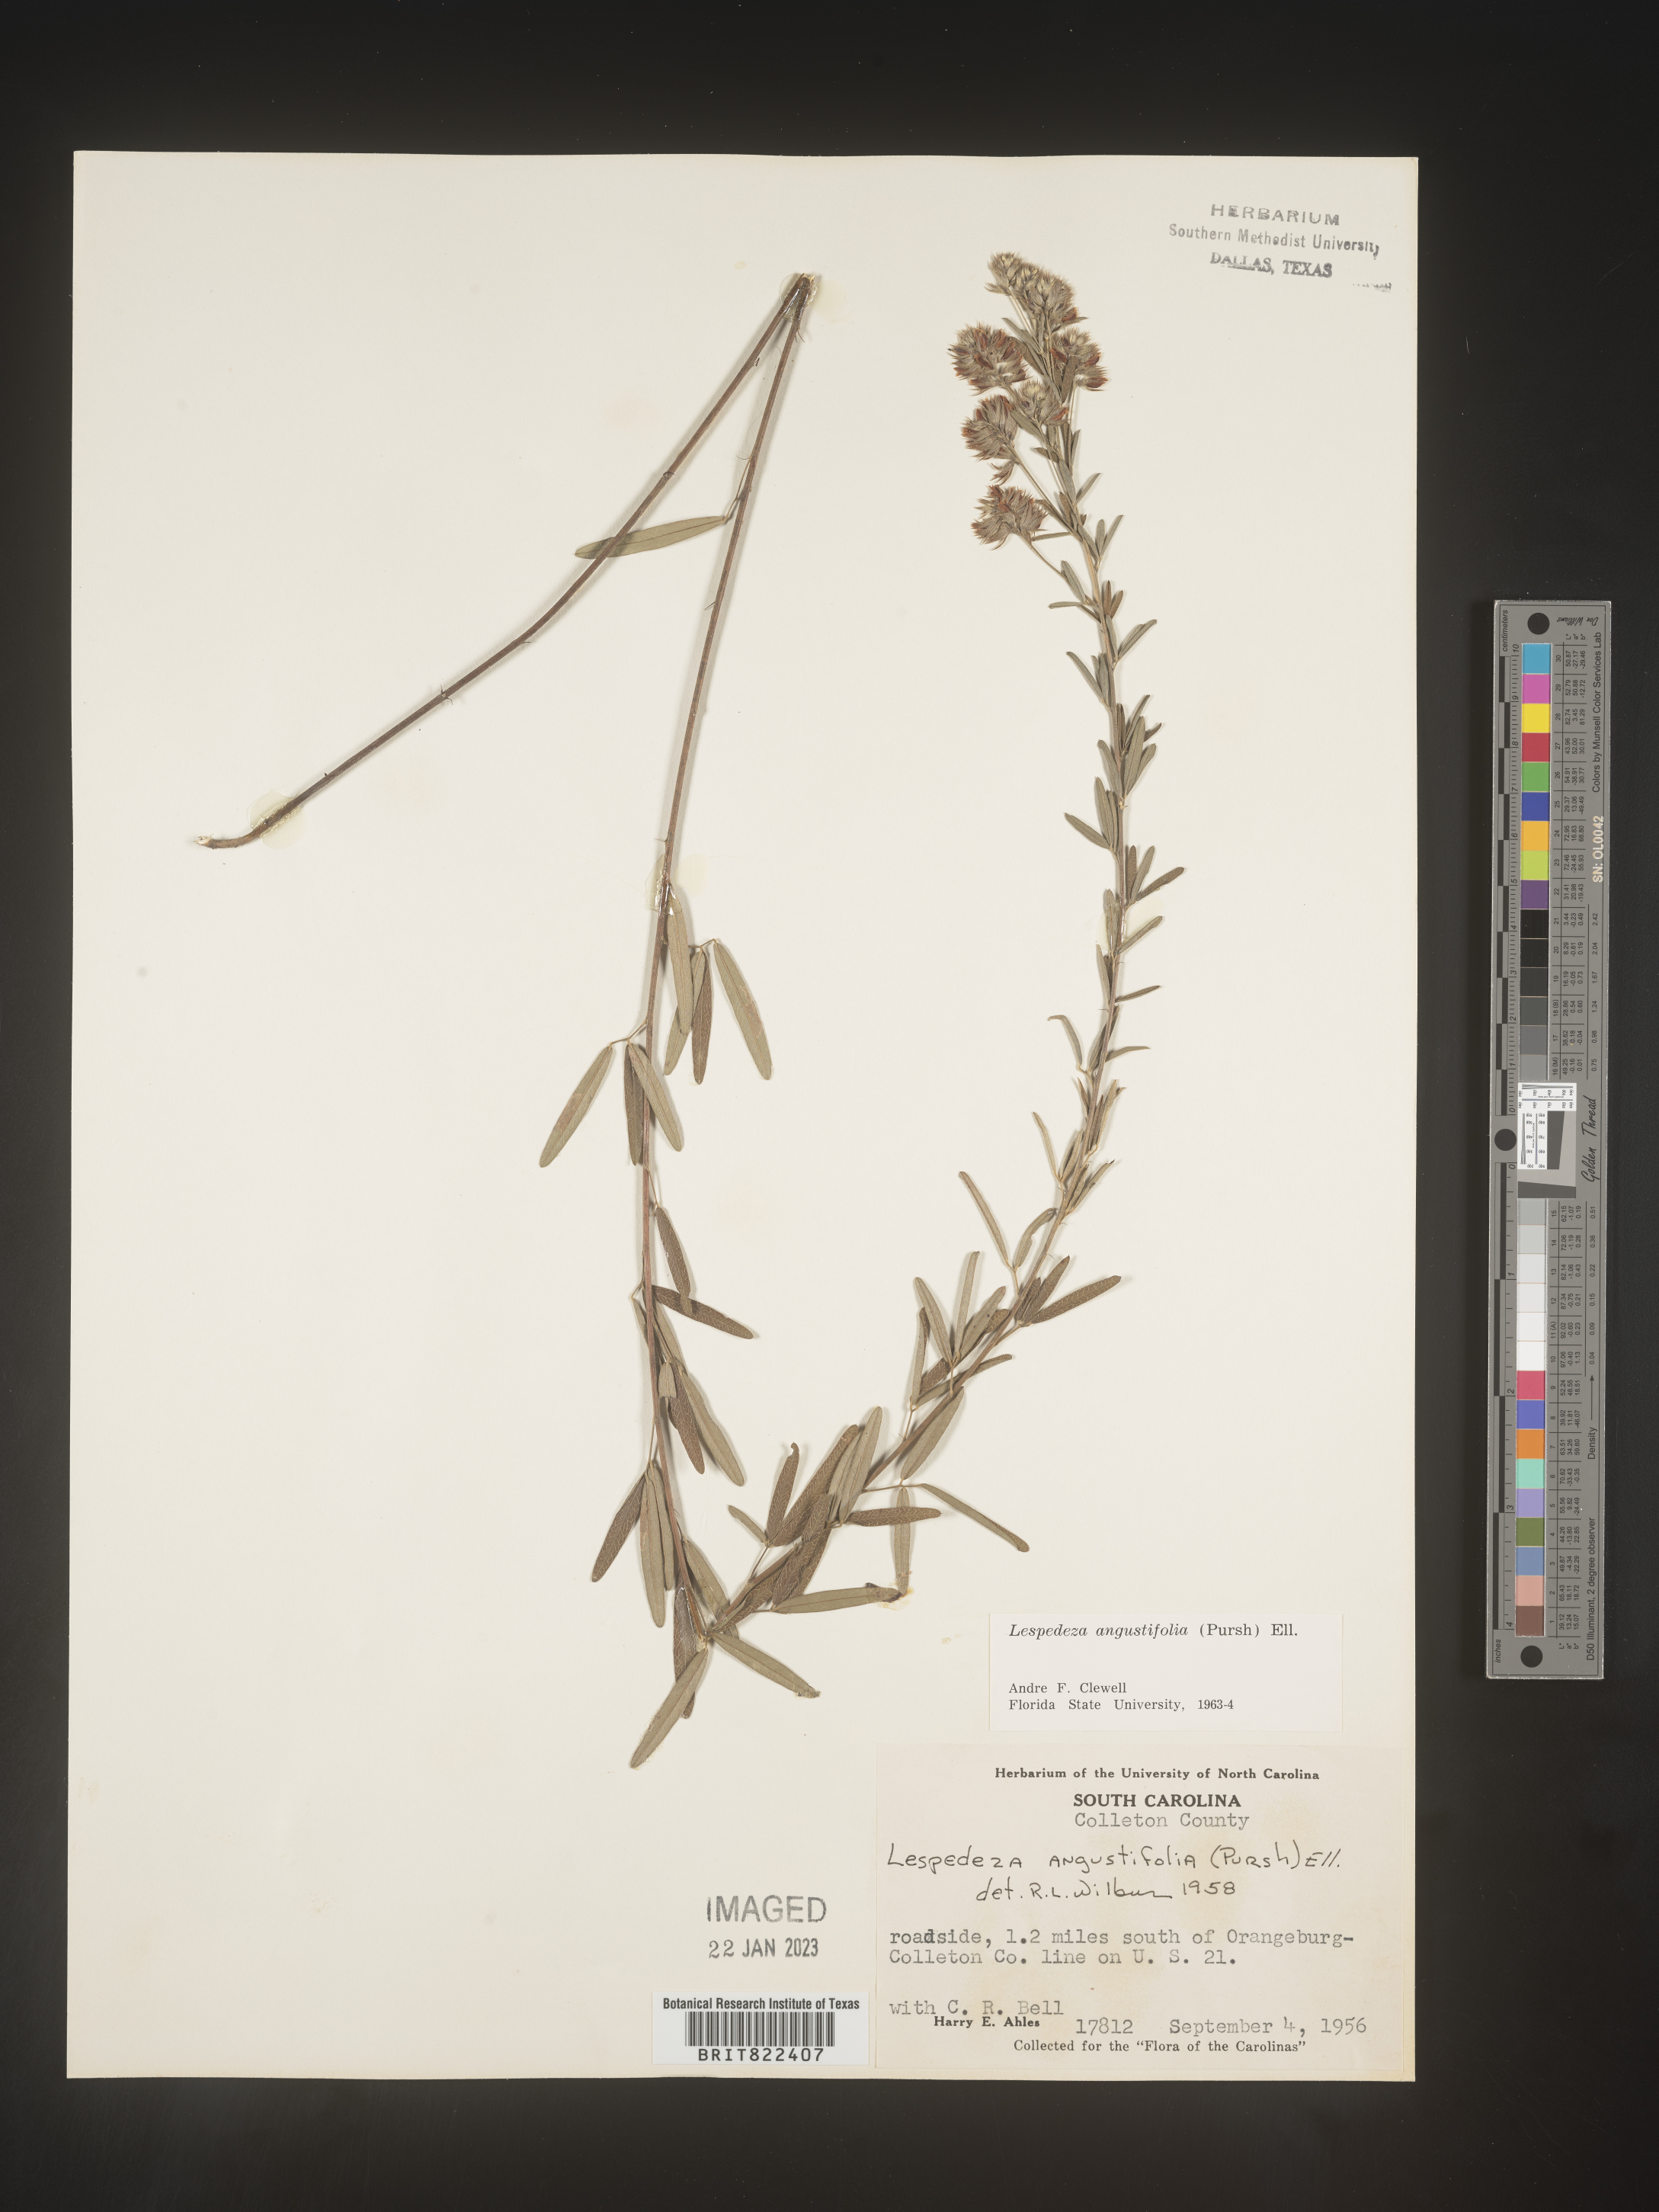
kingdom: Plantae
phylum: Tracheophyta
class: Magnoliopsida
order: Fabales
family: Fabaceae
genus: Lespedeza
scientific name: Lespedeza
